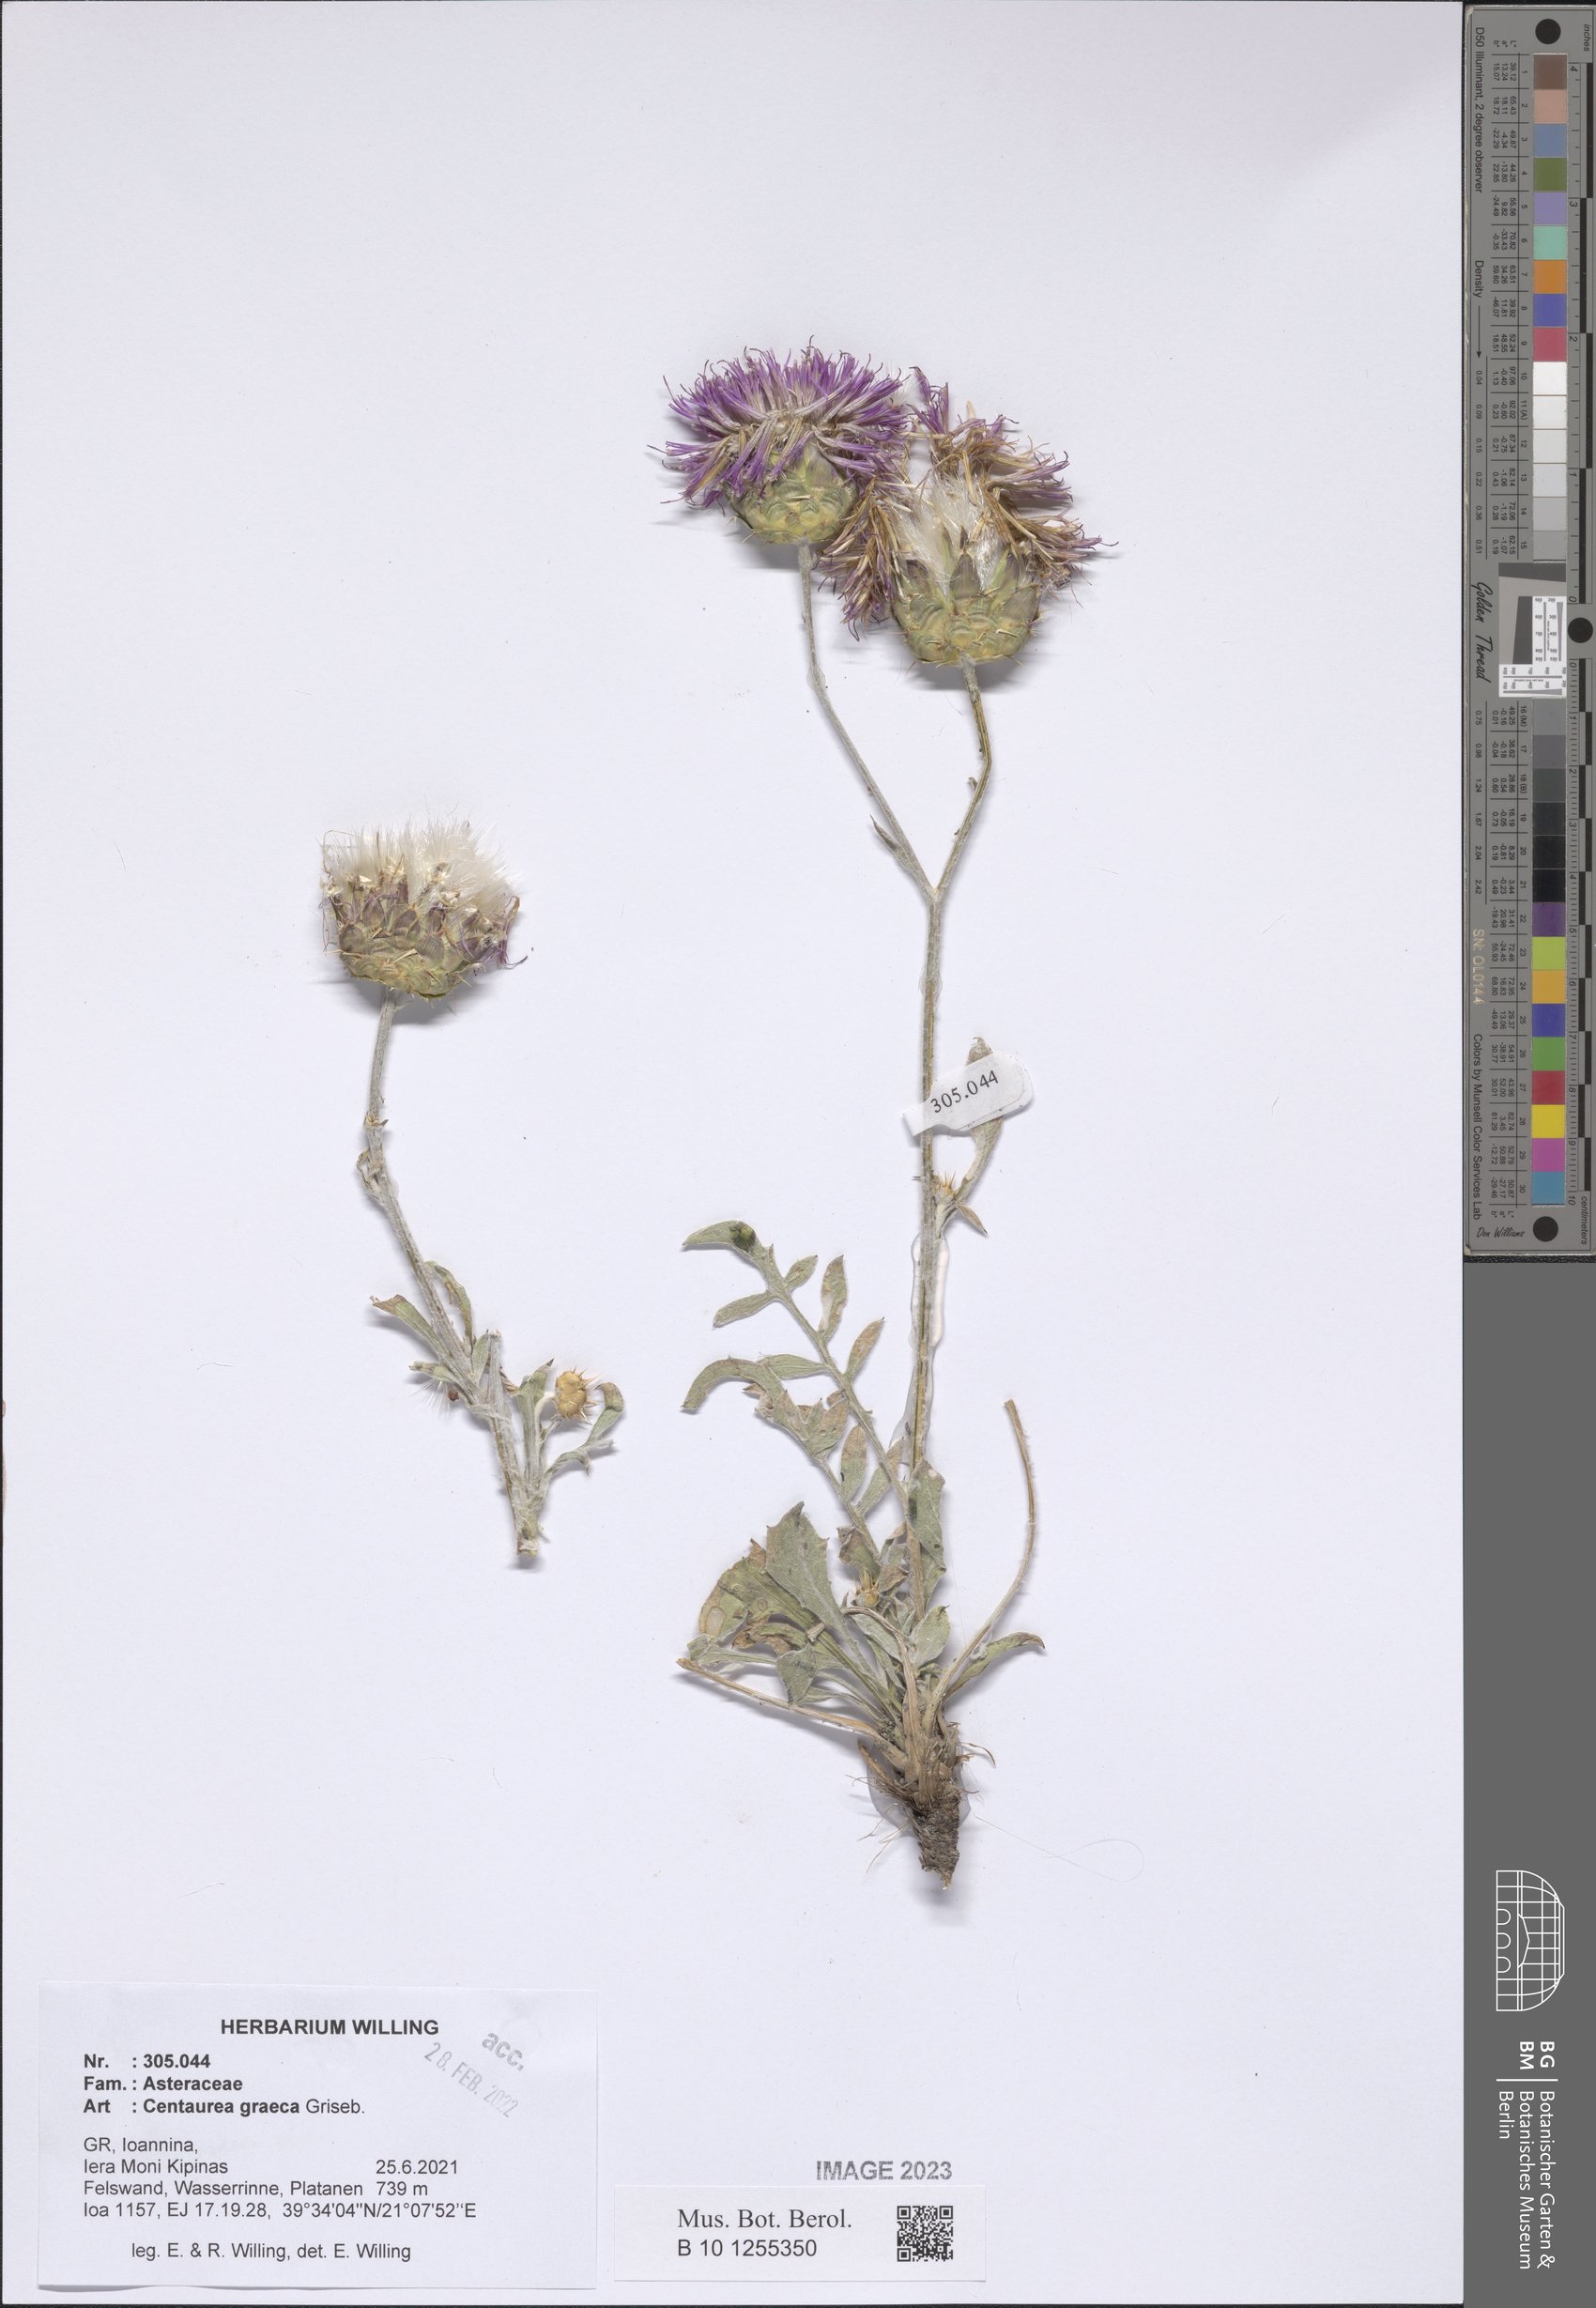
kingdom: Plantae
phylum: Tracheophyta
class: Magnoliopsida
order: Asterales
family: Asteraceae
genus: Centaurea
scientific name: Centaurea graeca
